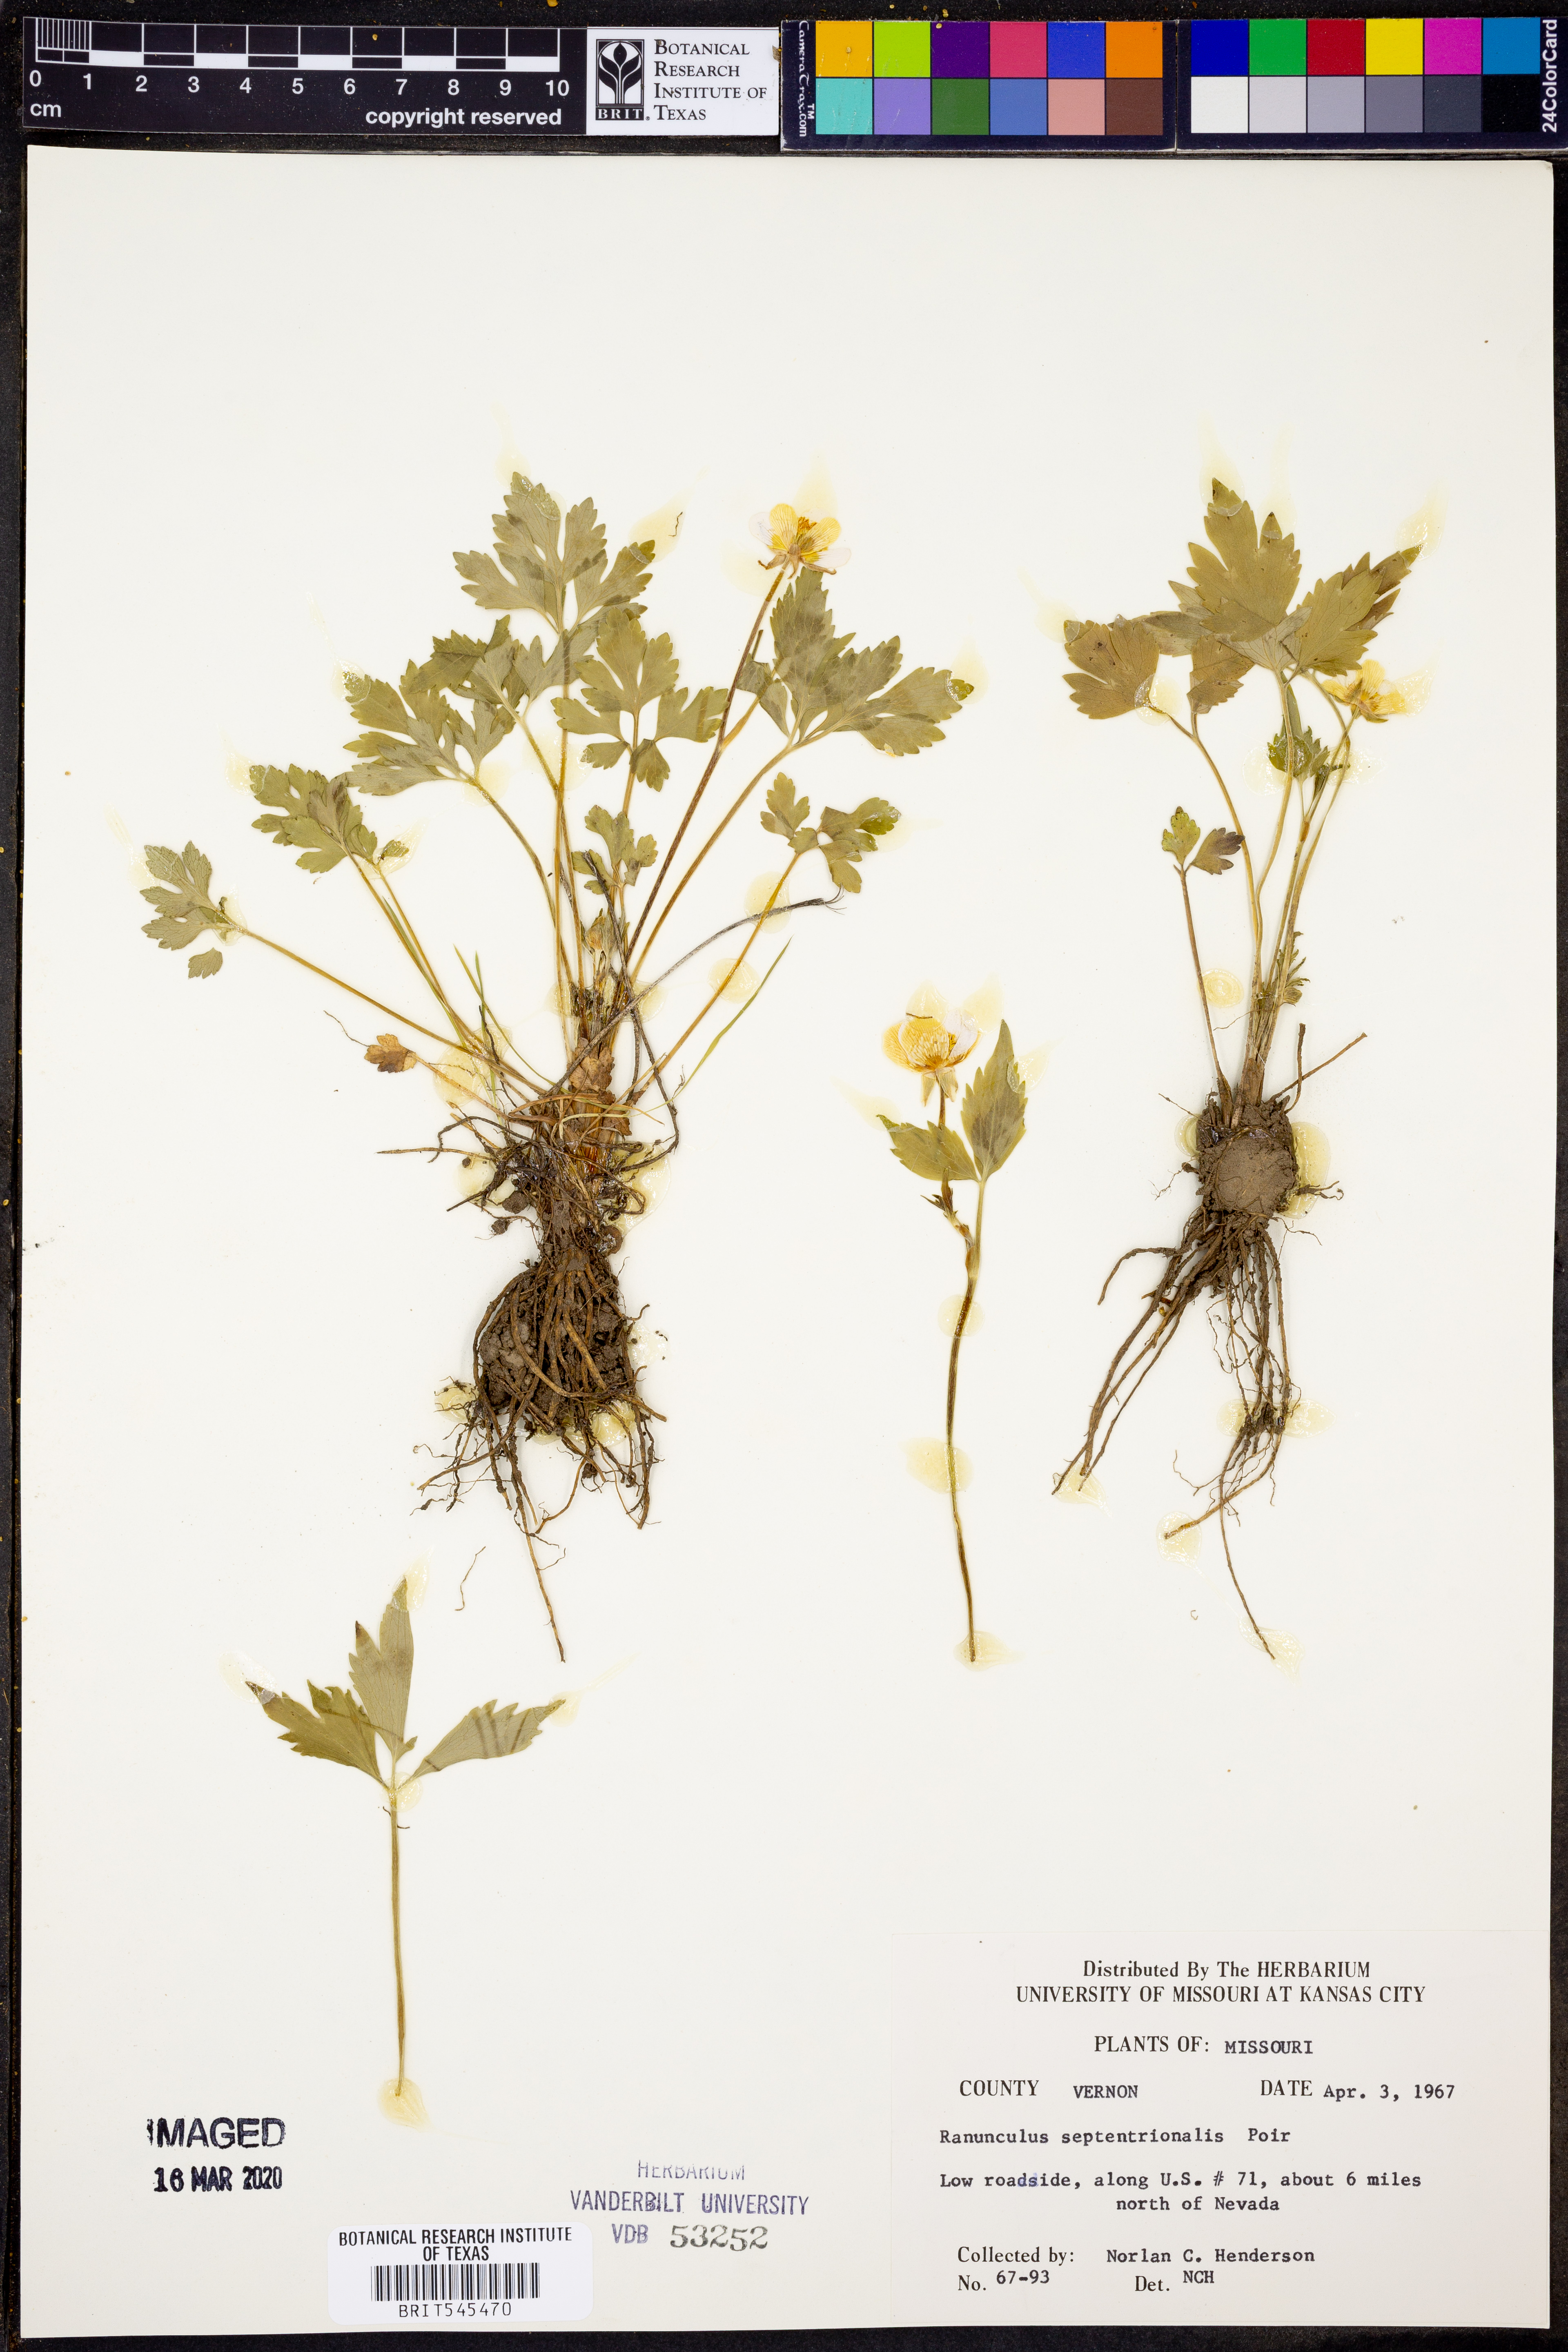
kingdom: Plantae
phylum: Tracheophyta
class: Magnoliopsida
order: Ranunculales
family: Ranunculaceae
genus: Ranunculus
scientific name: Ranunculus hispidus
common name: Bristly buttercup
